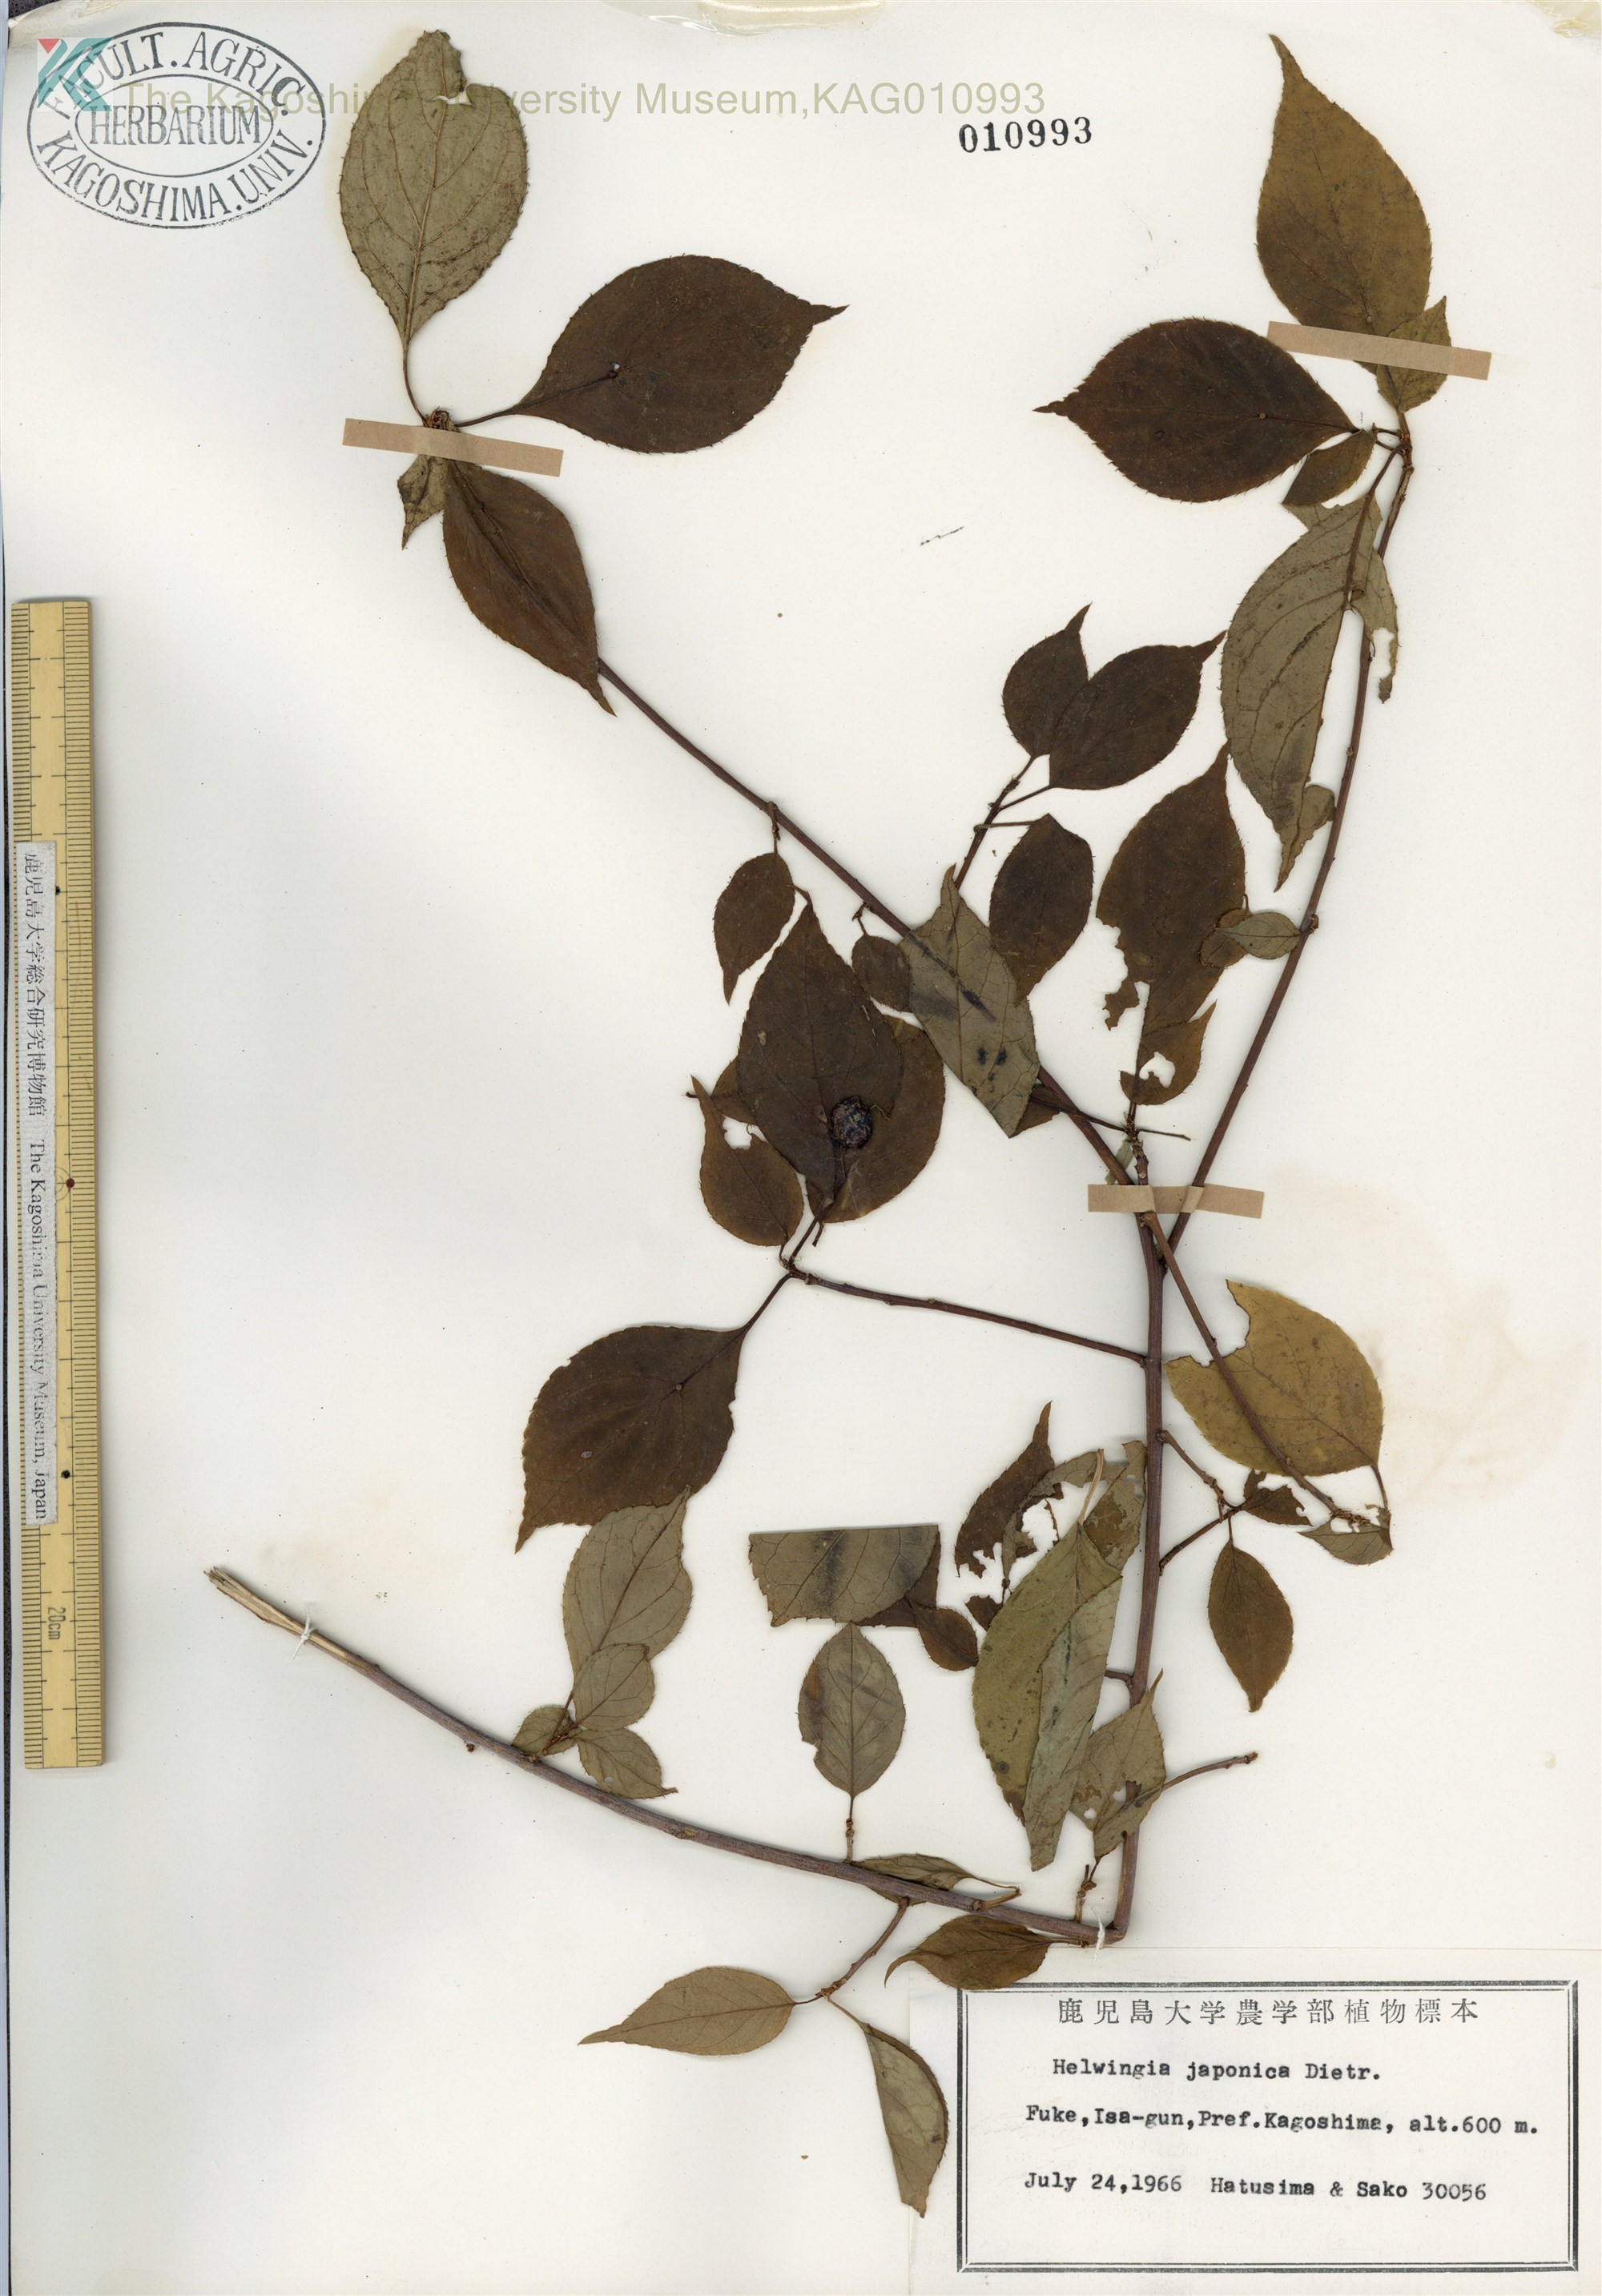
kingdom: Plantae
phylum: Tracheophyta
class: Magnoliopsida
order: Aquifoliales
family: Helwingiaceae
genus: Helwingia
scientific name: Helwingia japonica
